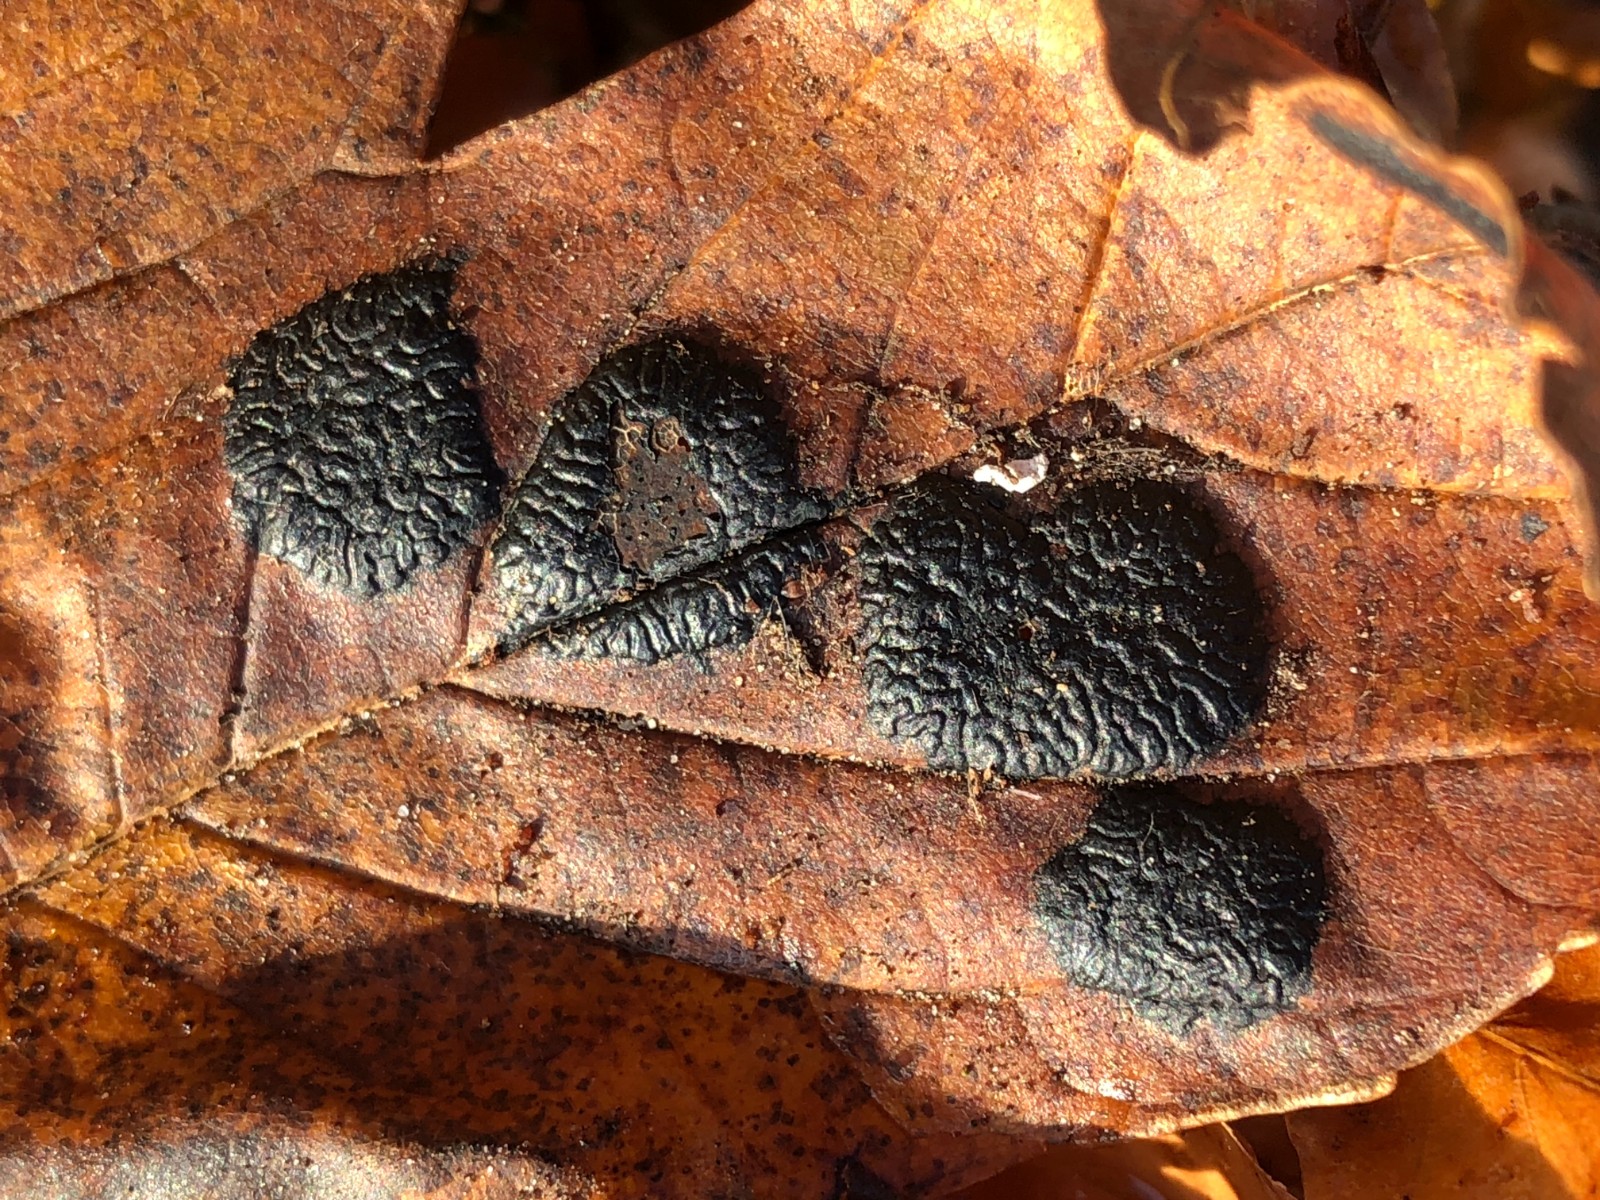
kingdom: Fungi
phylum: Ascomycota
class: Leotiomycetes
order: Rhytismatales
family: Rhytismataceae
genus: Rhytisma
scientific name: Rhytisma acerinum
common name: ahorn-rynkeplet
